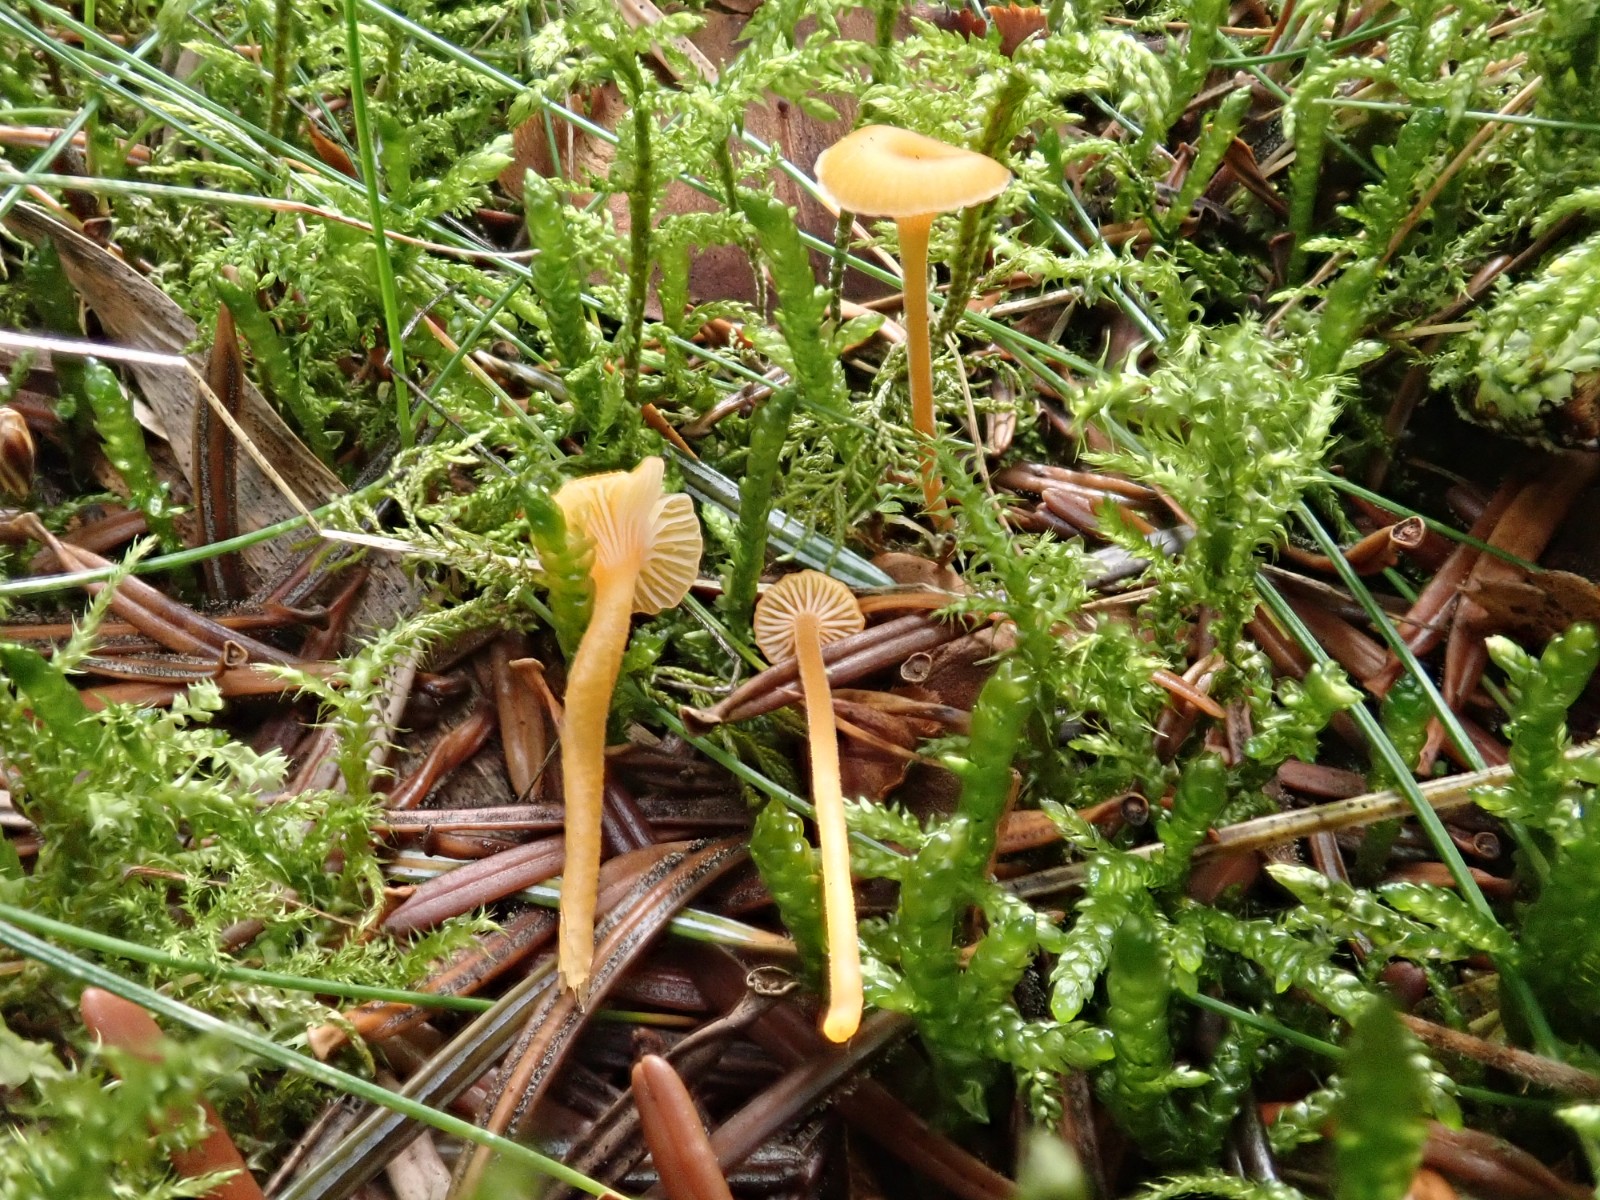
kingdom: Fungi
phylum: Basidiomycota
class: Agaricomycetes
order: Hymenochaetales
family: Rickenellaceae
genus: Rickenella
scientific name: Rickenella fibula
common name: orange mosnavlehat
